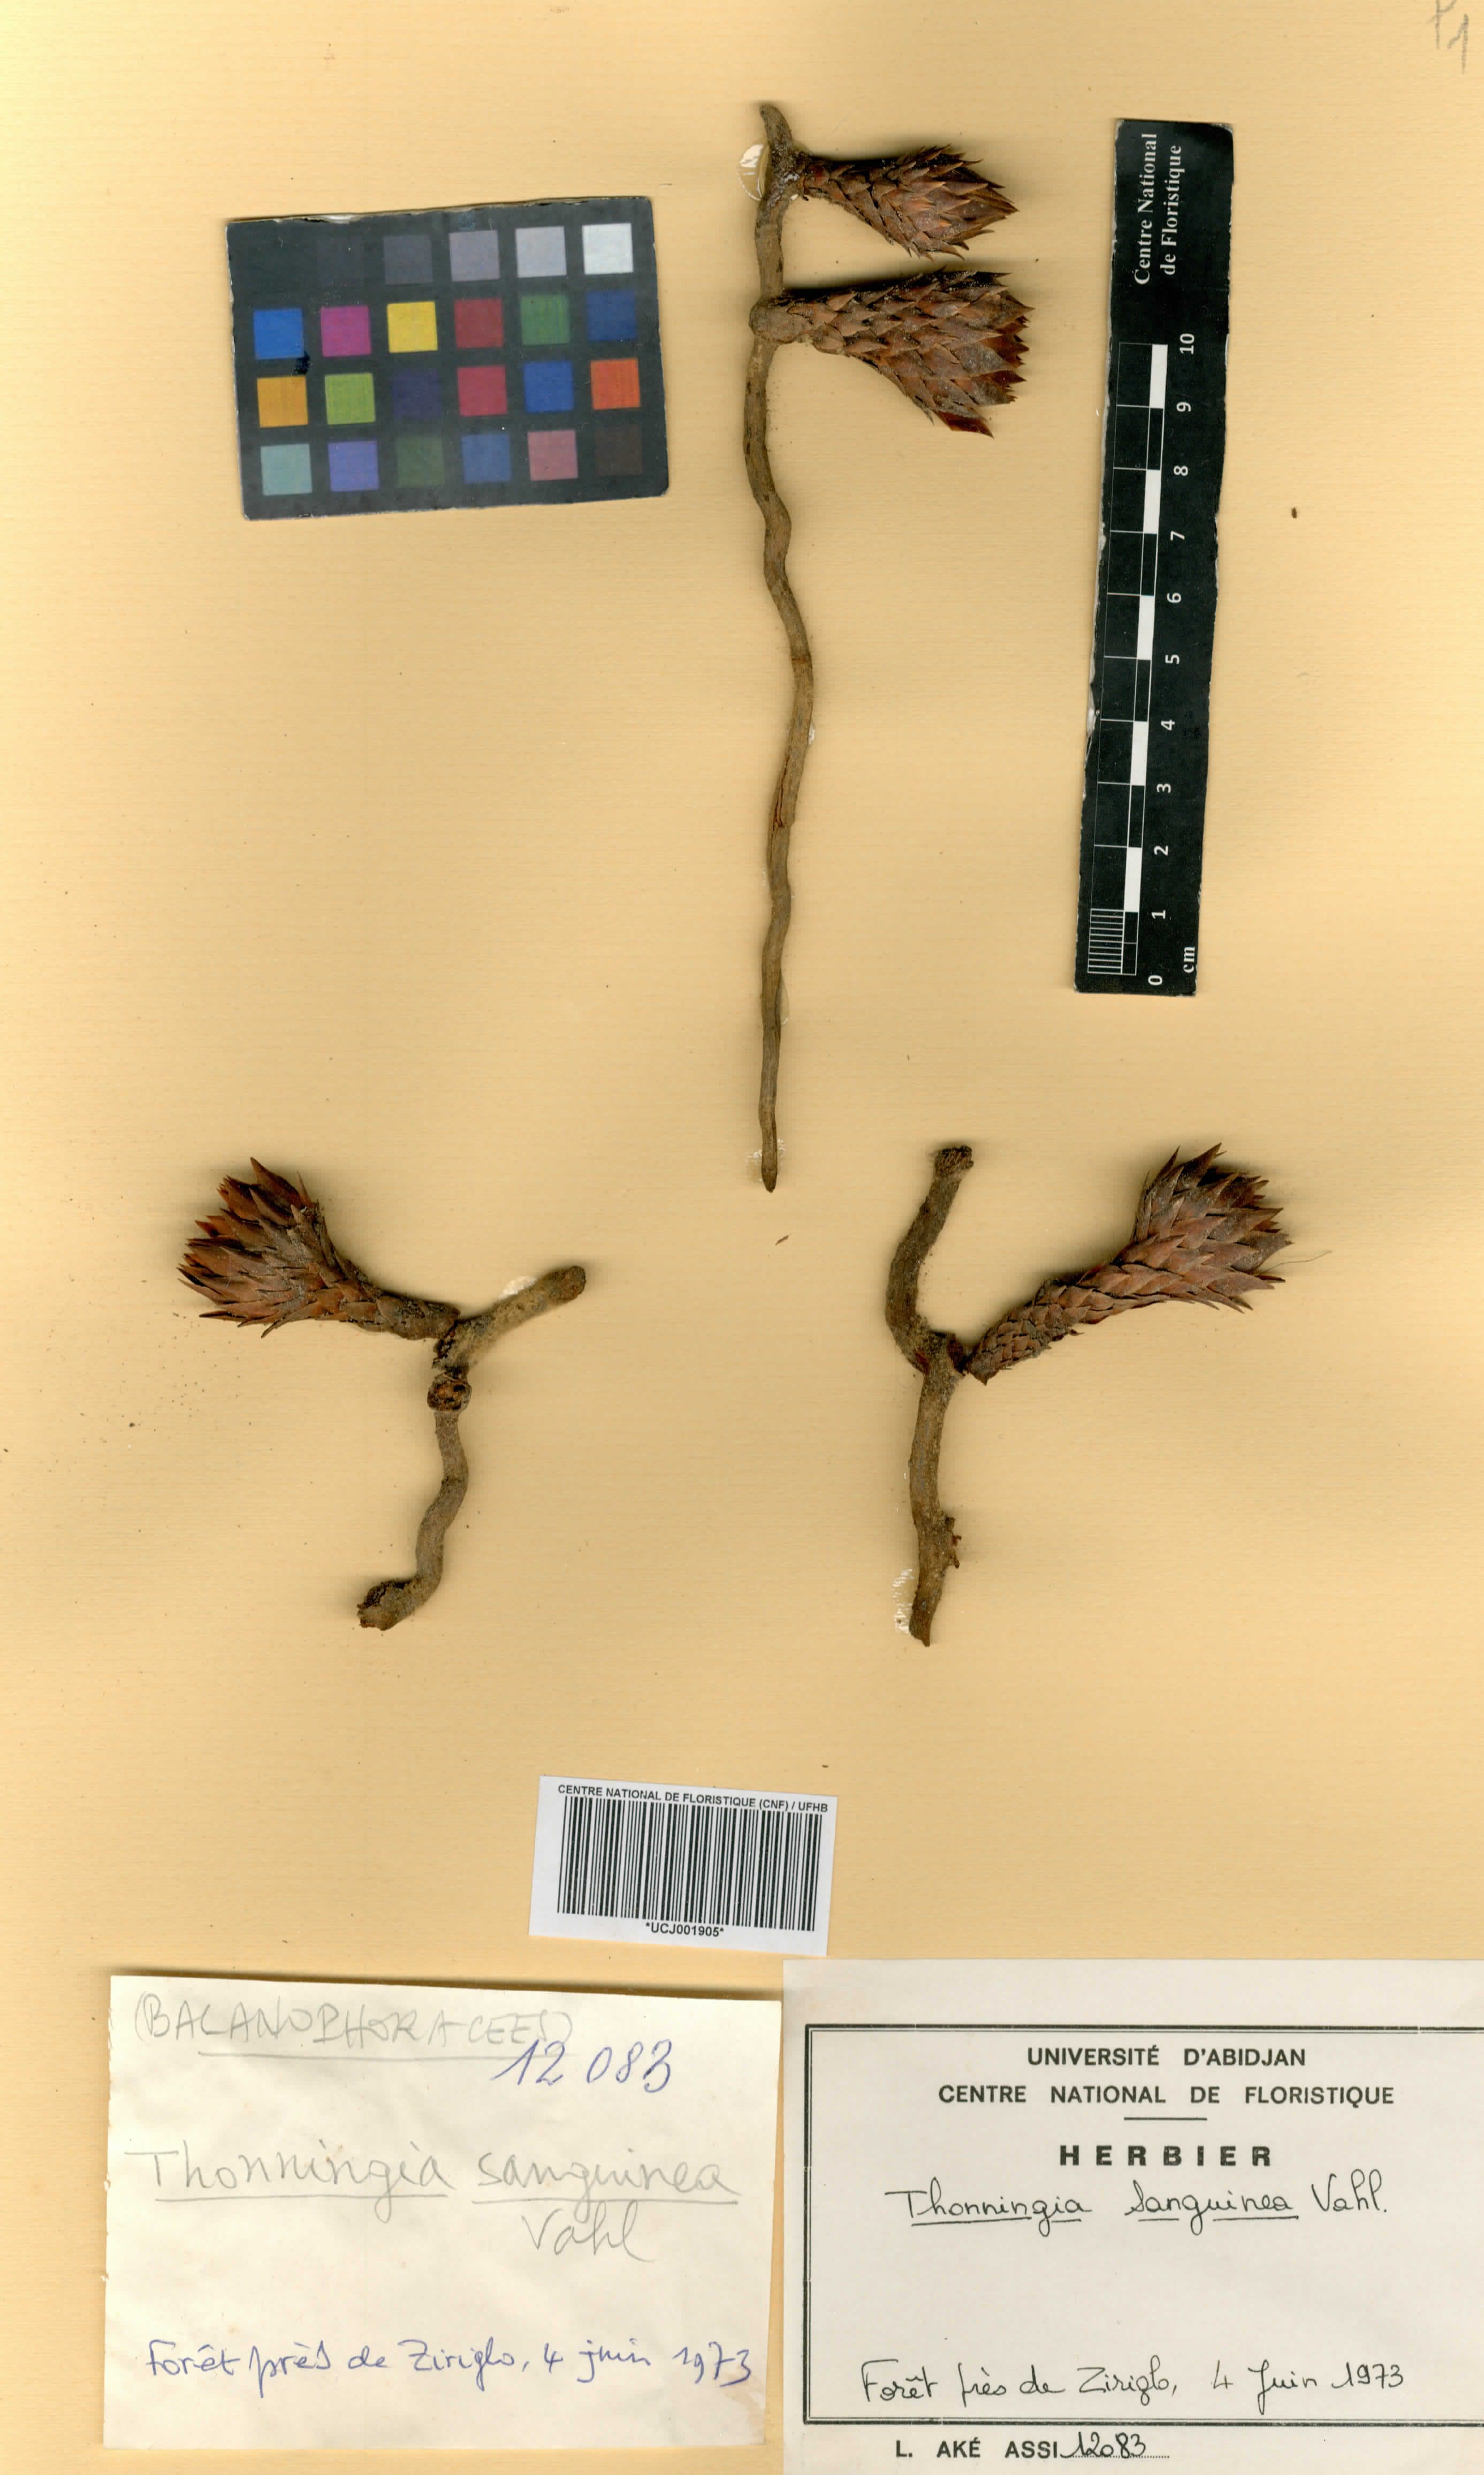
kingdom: Plantae
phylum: Tracheophyta
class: Magnoliopsida
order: Santalales
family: Balanophoraceae
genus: Thonningia
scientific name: Thonningia sanguinea
